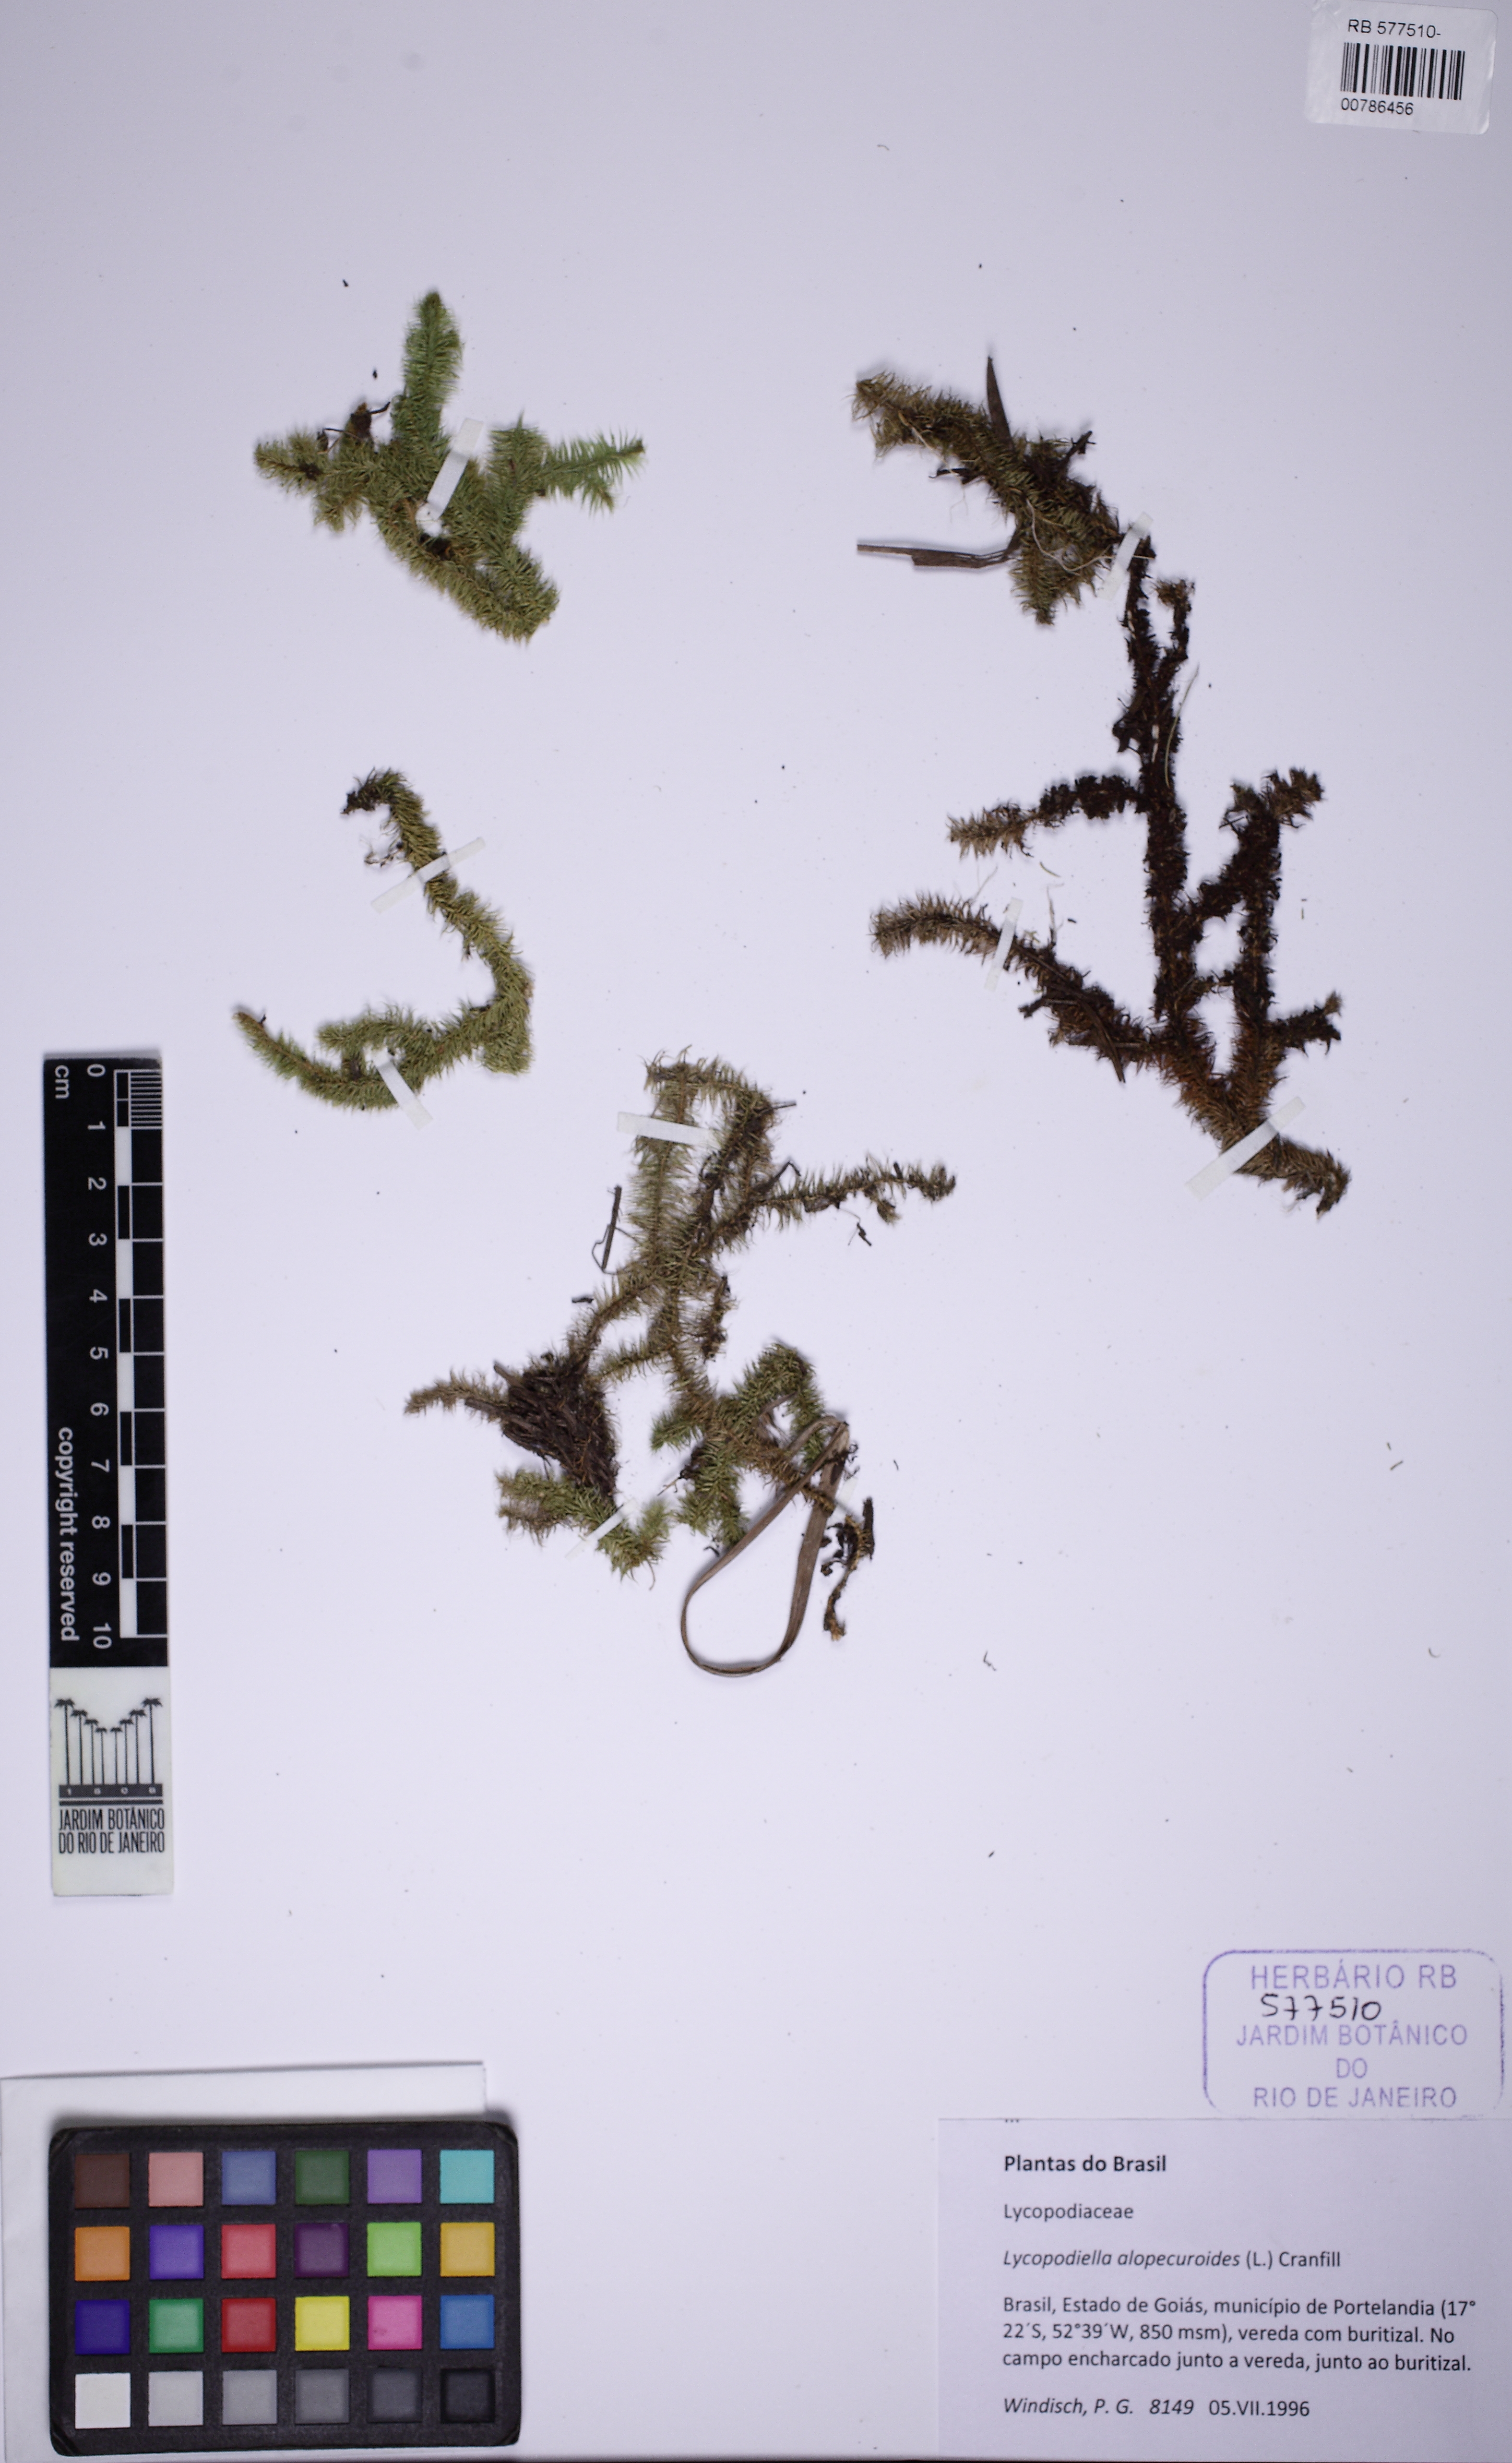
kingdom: Plantae
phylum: Tracheophyta
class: Lycopodiopsida
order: Lycopodiales
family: Lycopodiaceae
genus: Lycopodiella
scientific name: Lycopodiella alopecuroides
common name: Foxtail clubmoss
